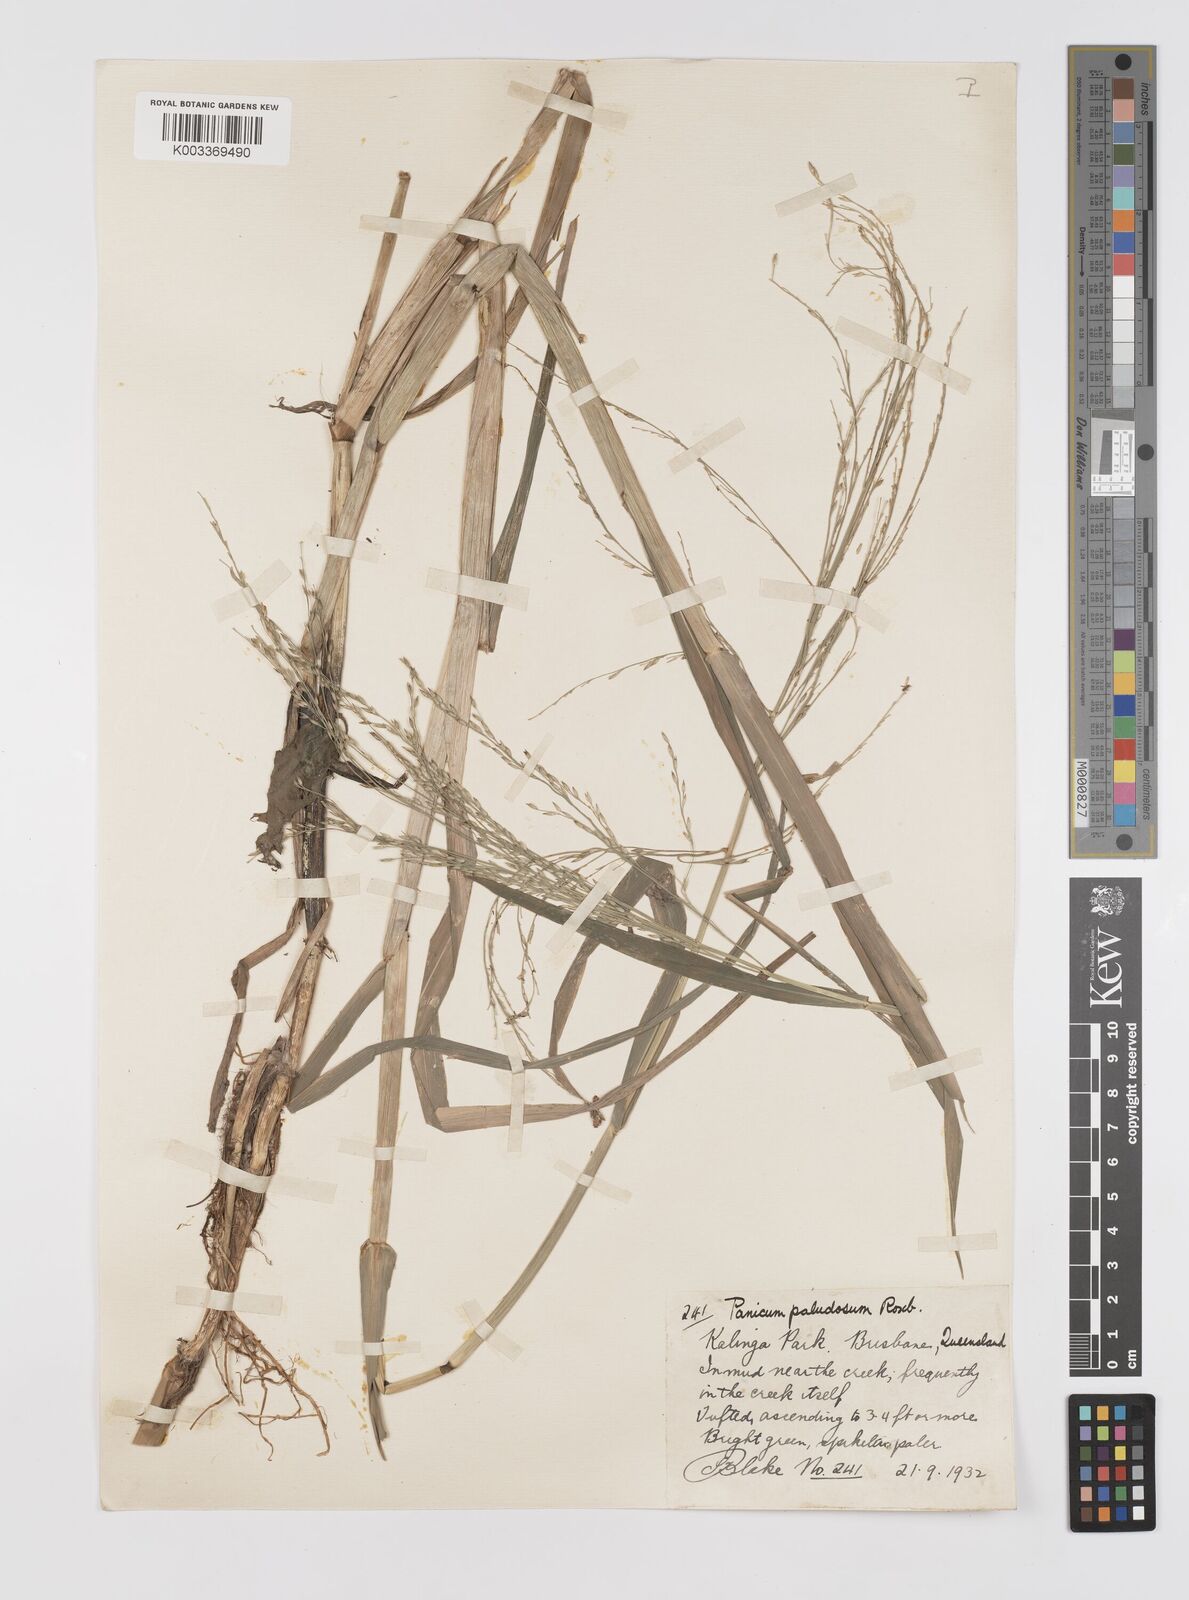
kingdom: Plantae
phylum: Tracheophyta
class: Liliopsida
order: Poales
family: Poaceae
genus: Louisiella
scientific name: Louisiella paludosa
